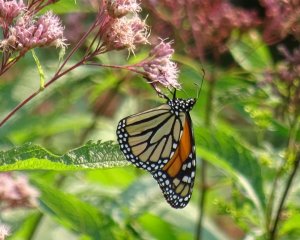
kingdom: Animalia
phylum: Arthropoda
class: Insecta
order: Lepidoptera
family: Nymphalidae
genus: Danaus
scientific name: Danaus plexippus
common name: Monarch
